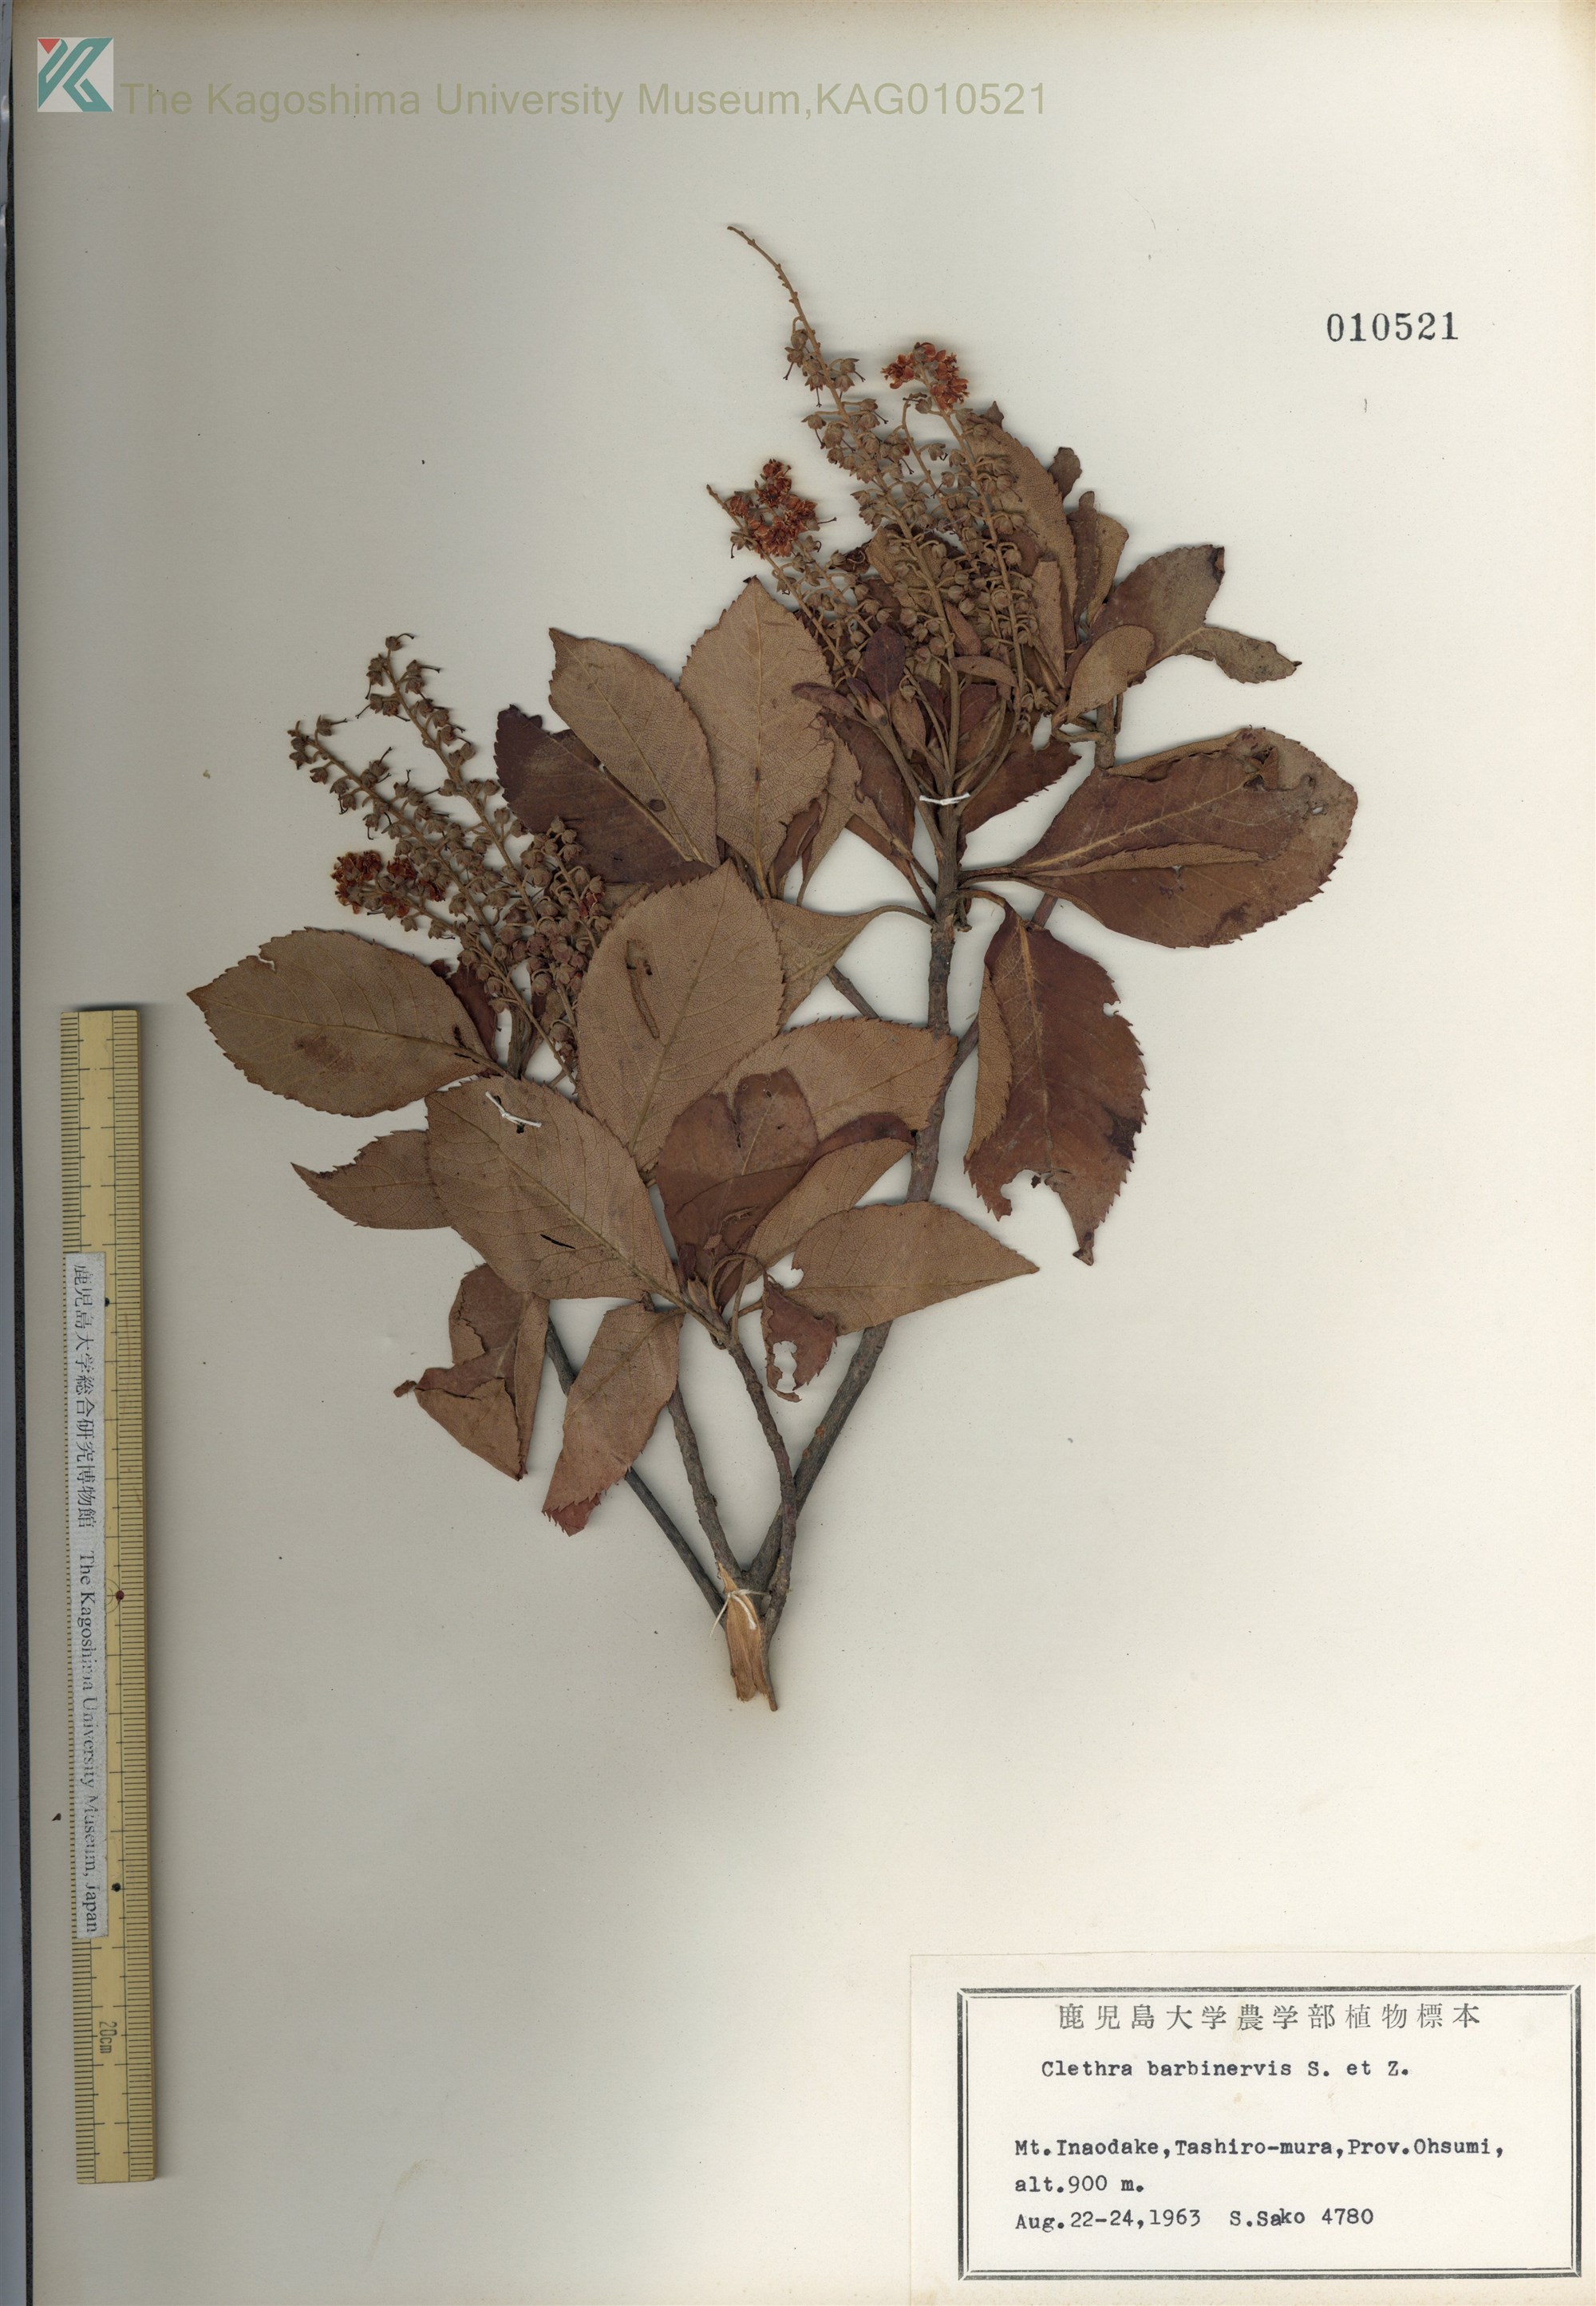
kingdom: Plantae
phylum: Tracheophyta
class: Magnoliopsida
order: Ericales
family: Clethraceae
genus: Clethra
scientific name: Clethra barbinervis
